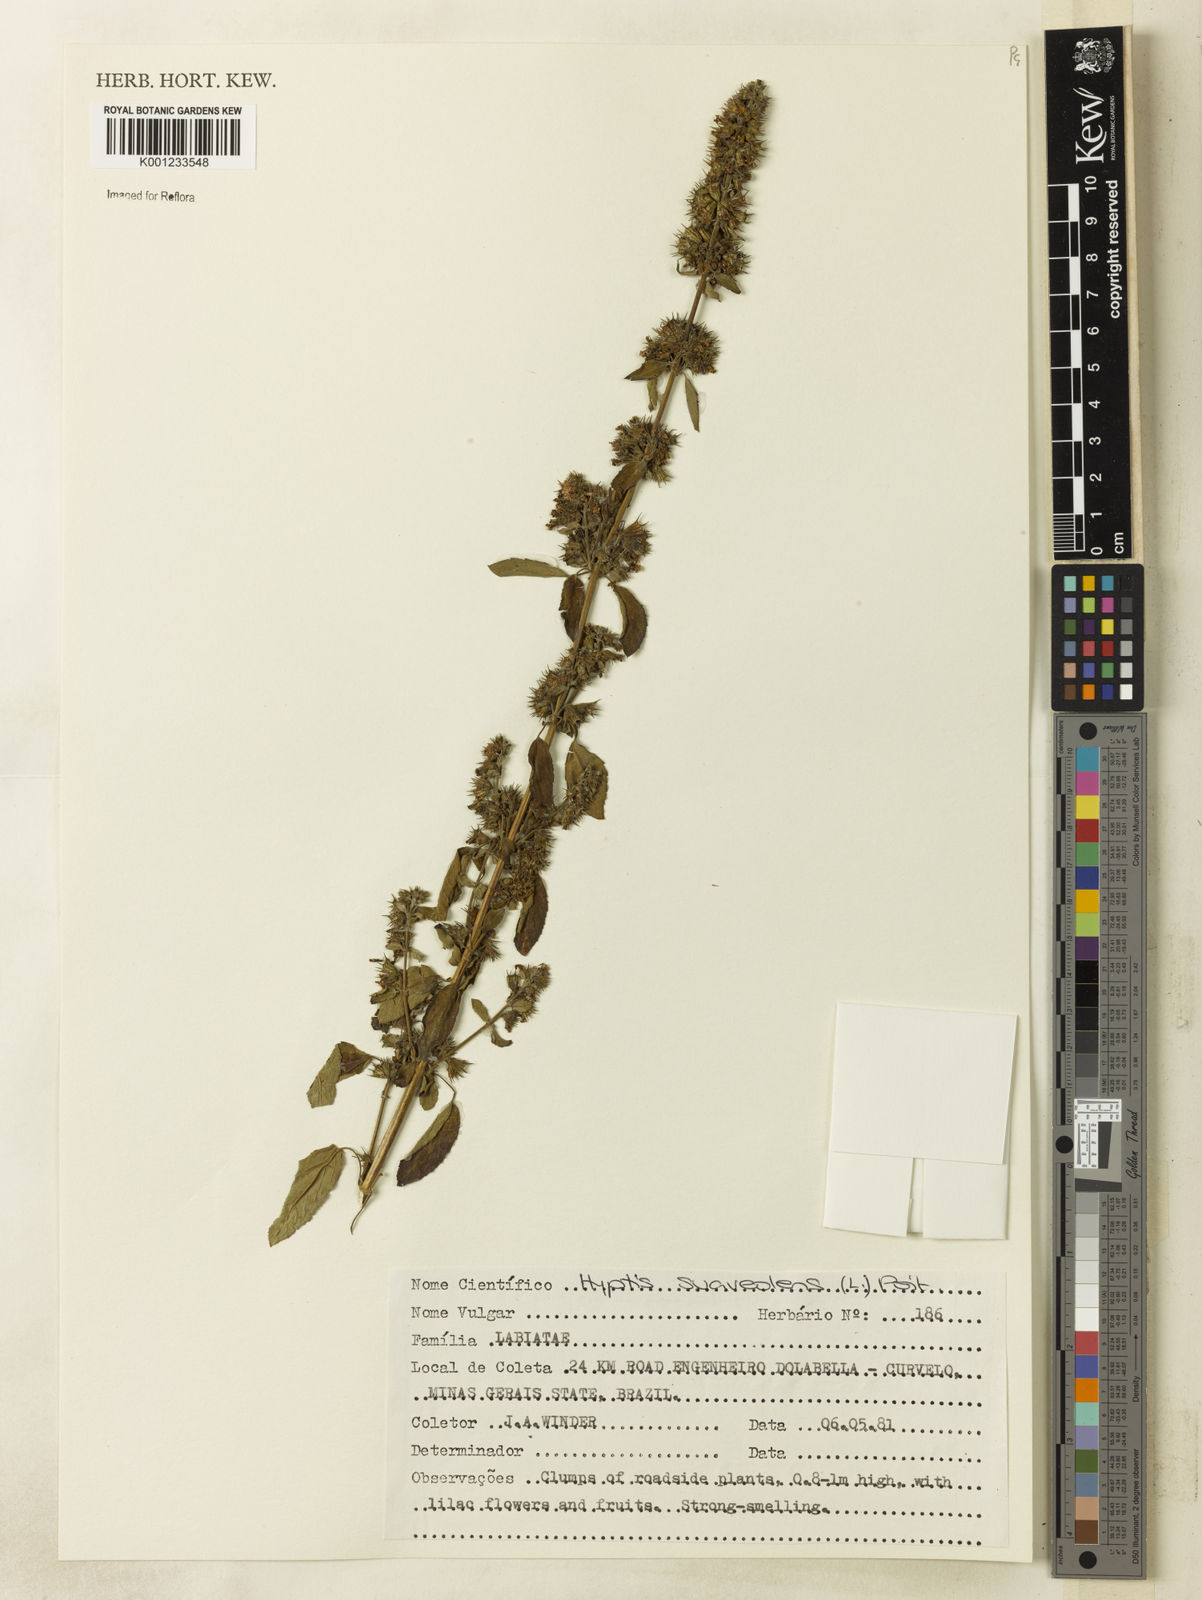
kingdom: Plantae
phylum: Tracheophyta
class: Magnoliopsida
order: Lamiales
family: Lamiaceae
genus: Mesosphaerum
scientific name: Mesosphaerum suaveolens
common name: Pignut
